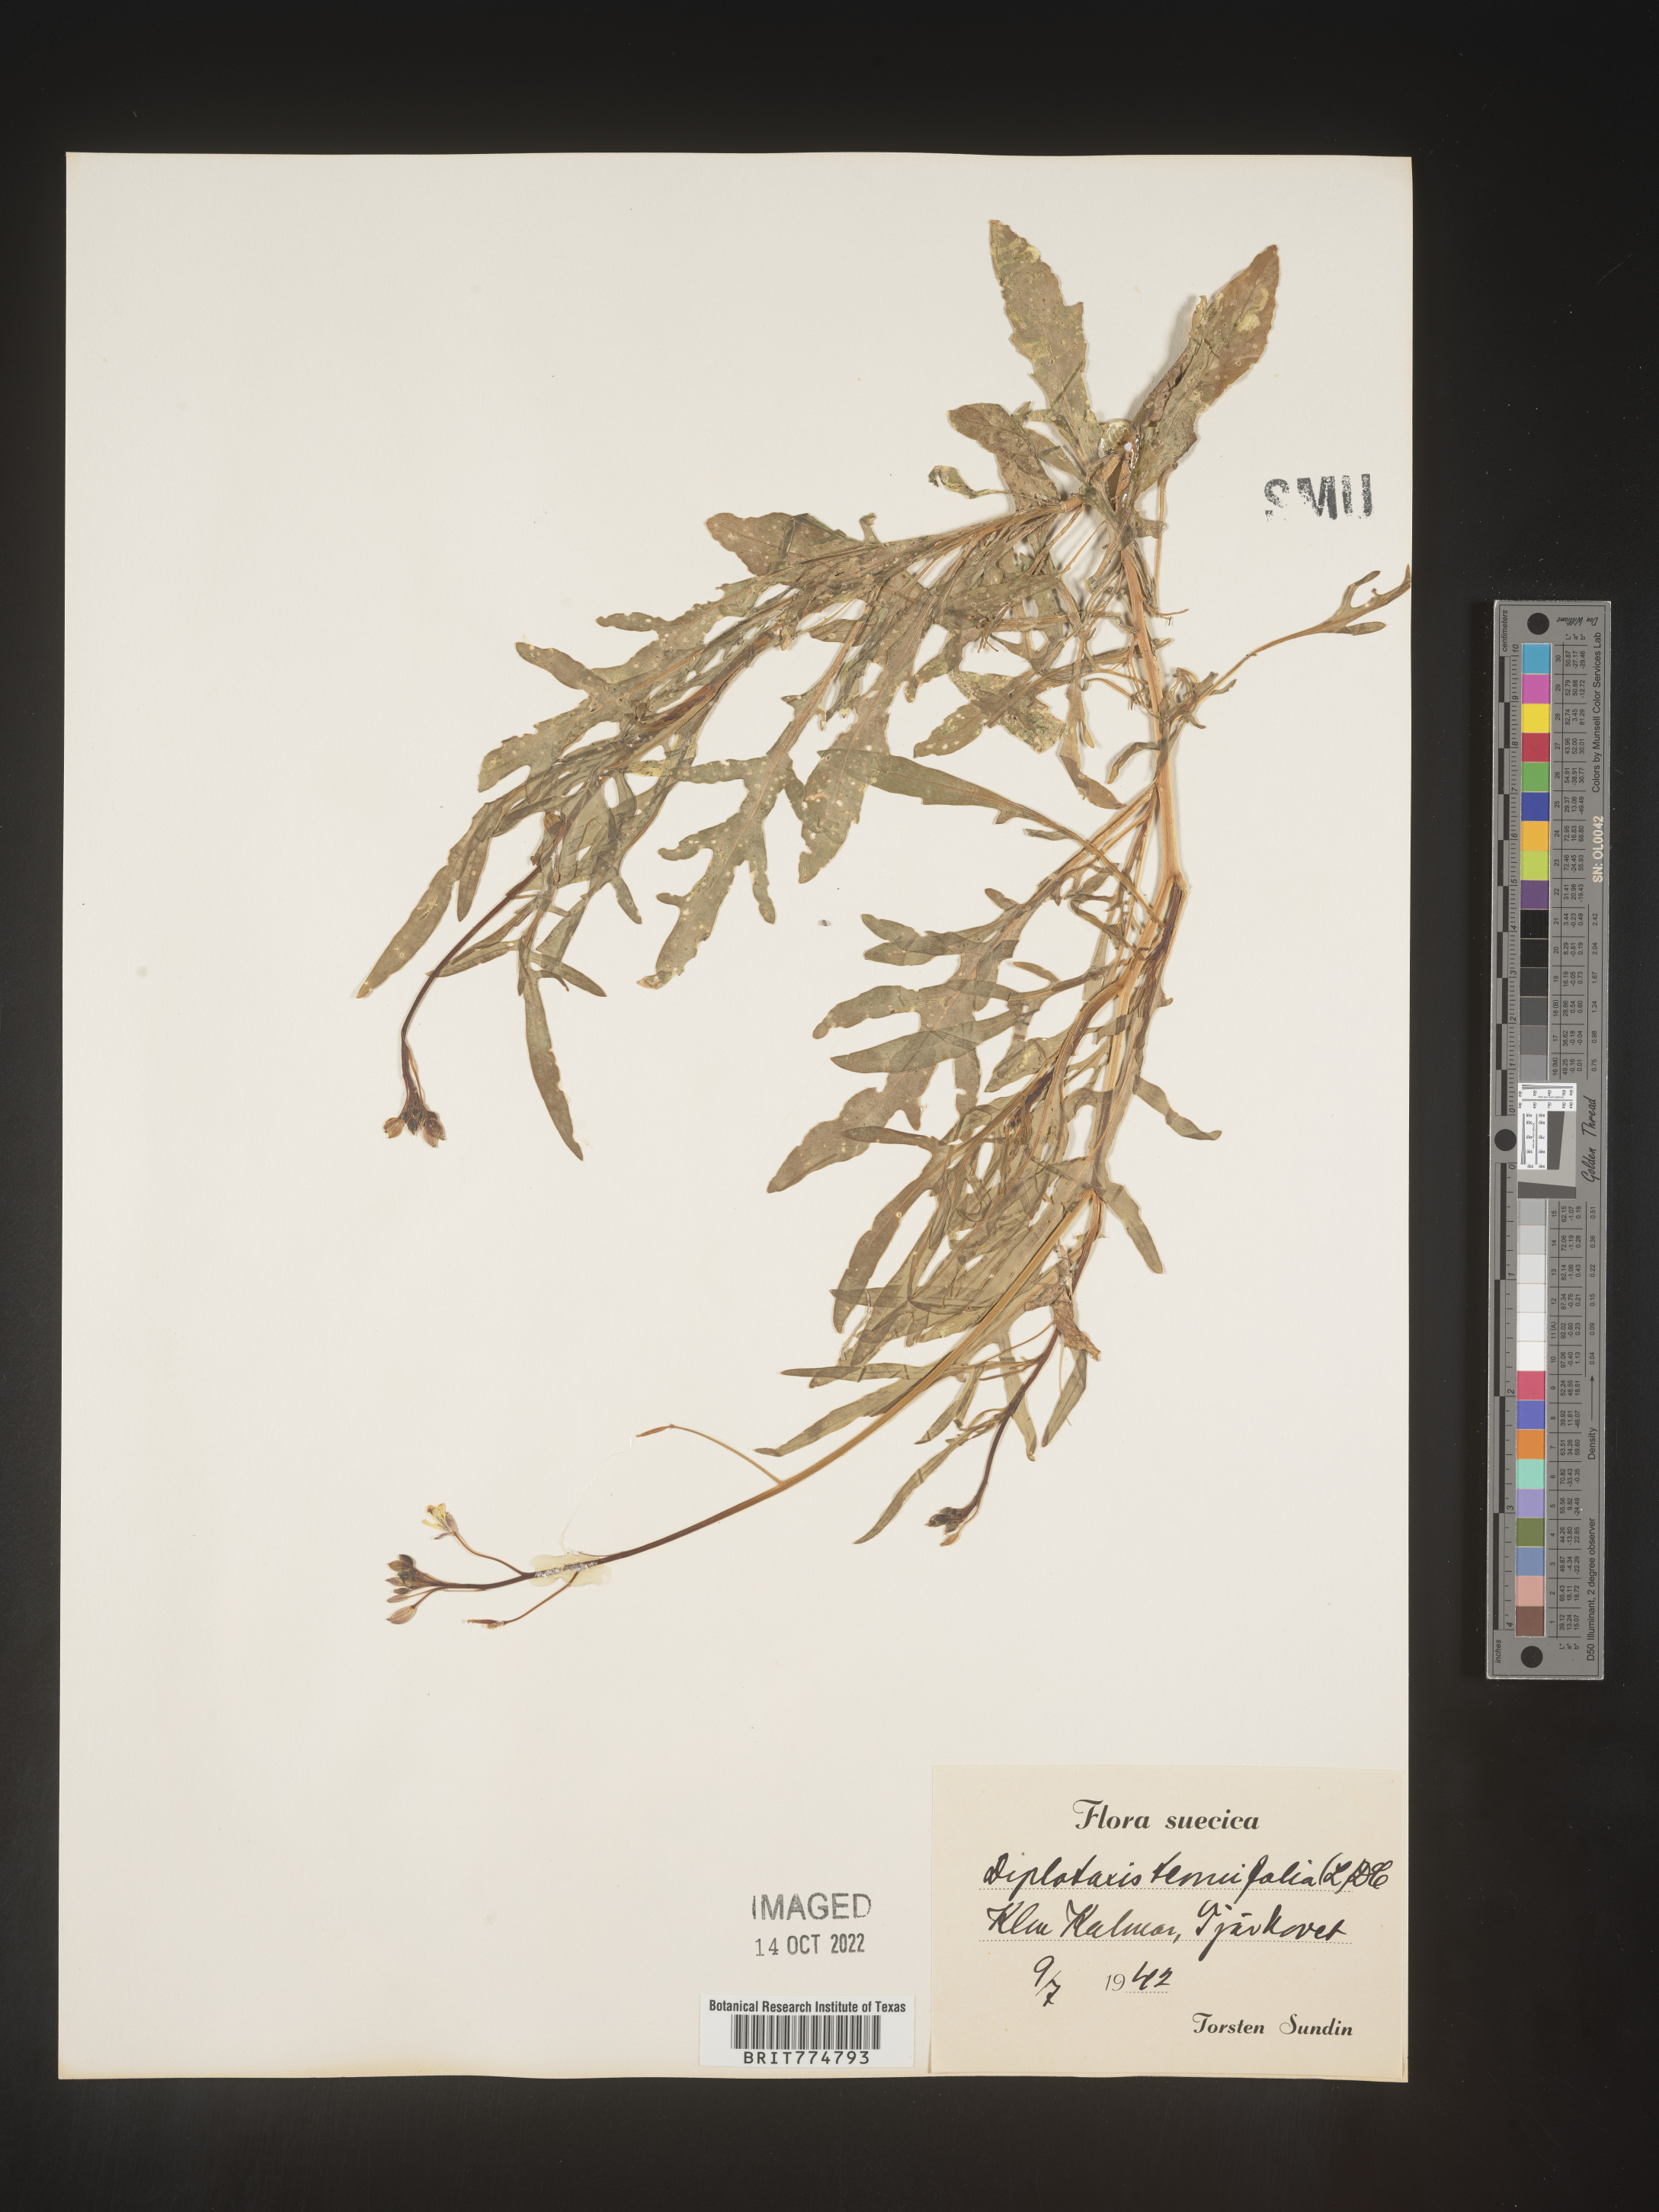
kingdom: Plantae
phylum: Tracheophyta
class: Magnoliopsida
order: Brassicales
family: Brassicaceae
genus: Diplotaxis
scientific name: Diplotaxis
